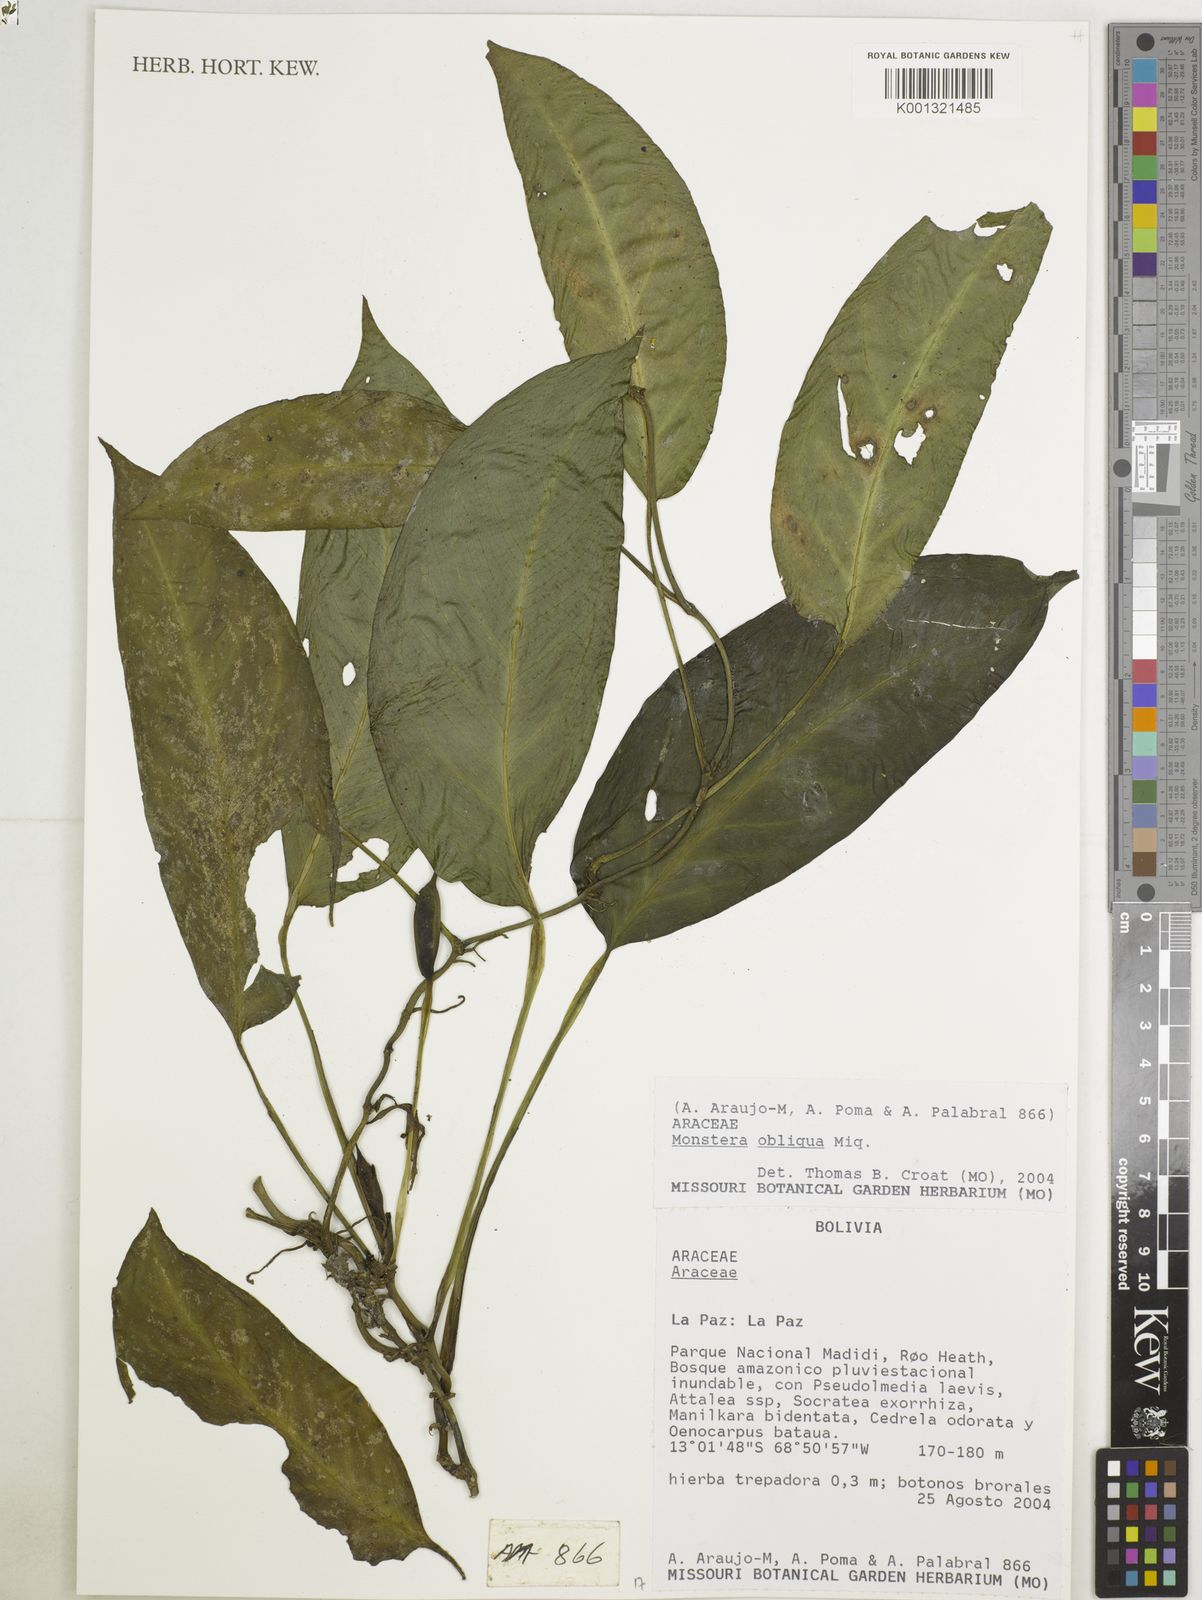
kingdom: Plantae
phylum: Tracheophyta
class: Liliopsida
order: Alismatales
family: Araceae
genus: Monstera
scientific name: Monstera obliqua
